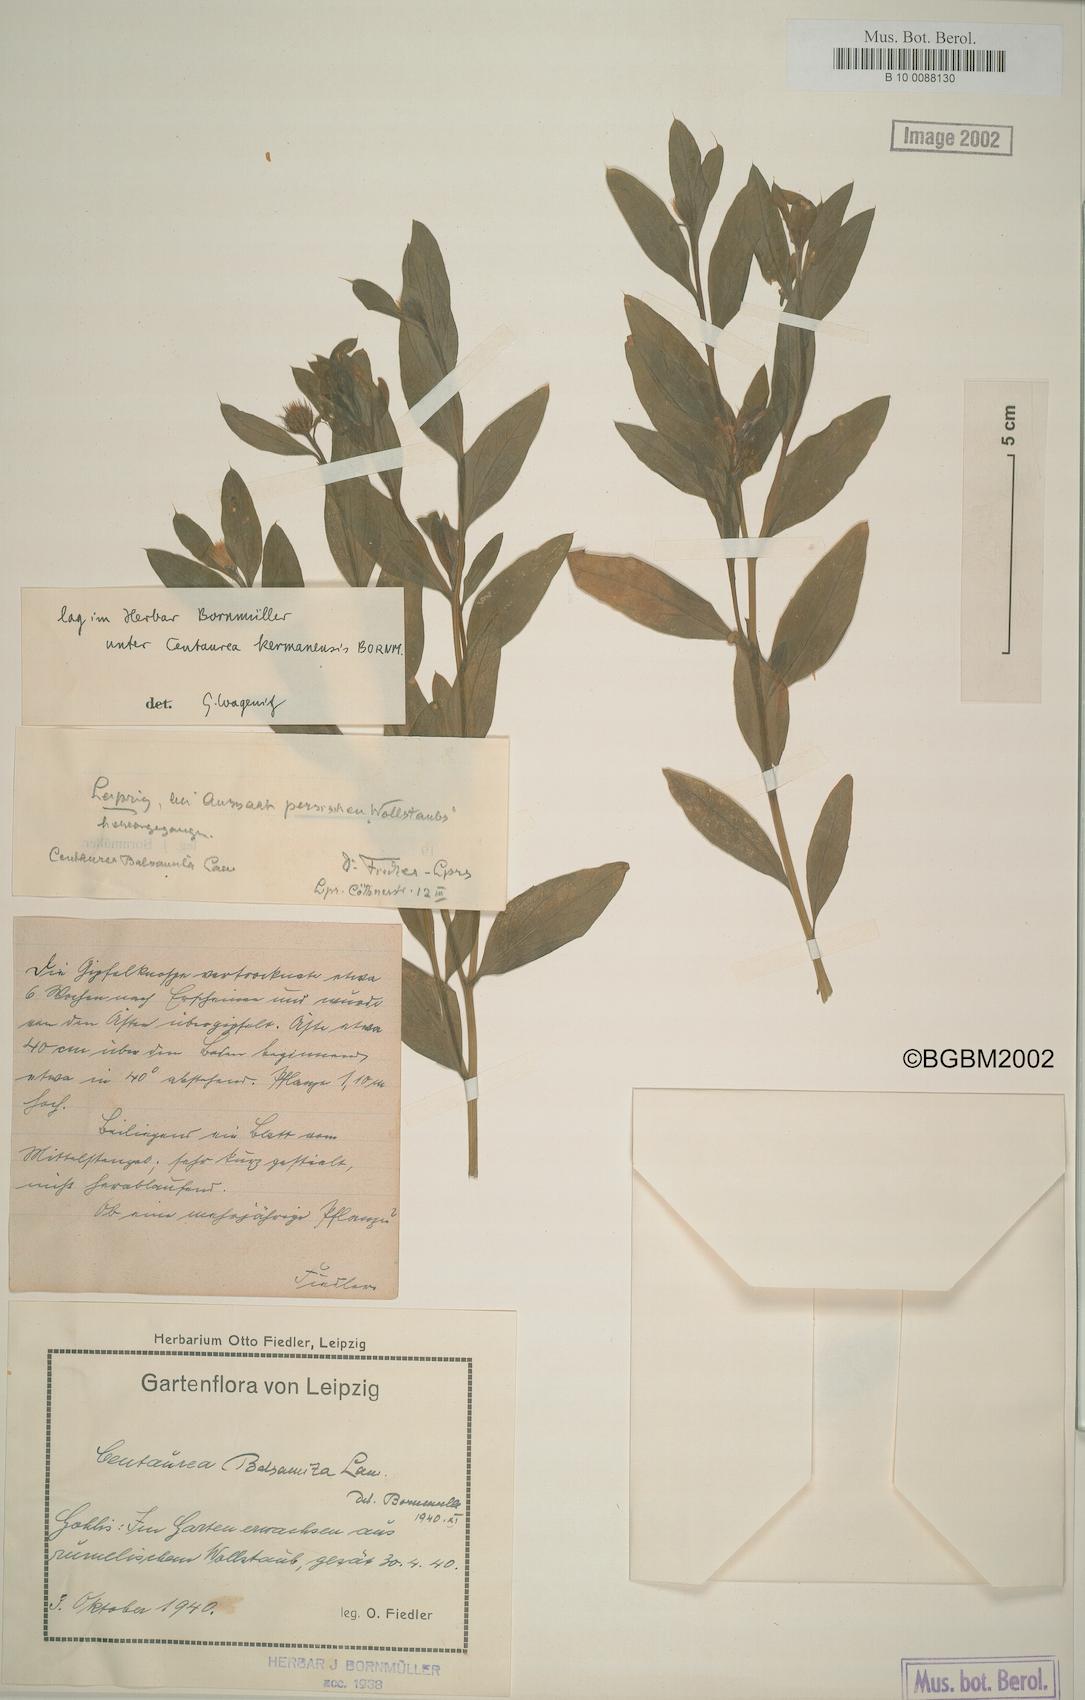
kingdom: Plantae
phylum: Tracheophyta
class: Magnoliopsida
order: Asterales
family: Asteraceae
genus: Stizolophus
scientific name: Stizolophus kermanensis
